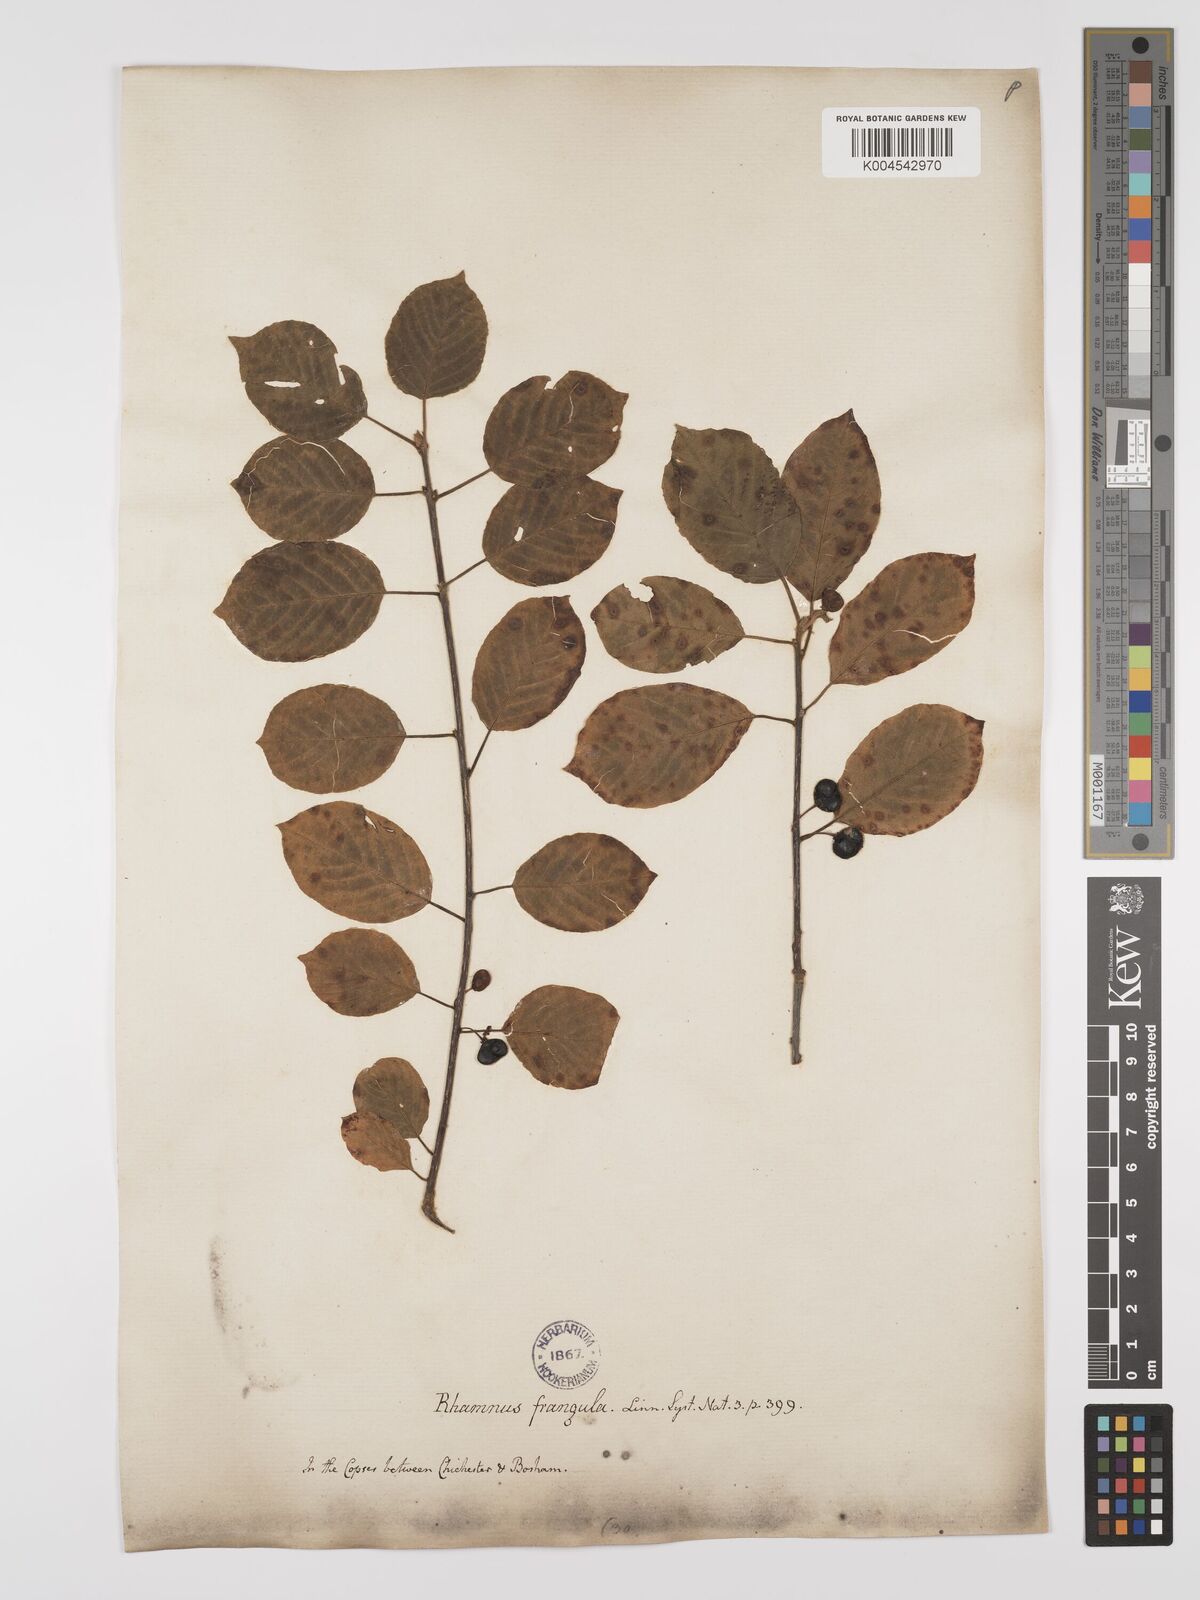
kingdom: Plantae
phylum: Tracheophyta
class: Magnoliopsida
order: Rosales
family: Rhamnaceae
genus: Frangula
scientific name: Frangula alnus
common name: Alder buckthorn
